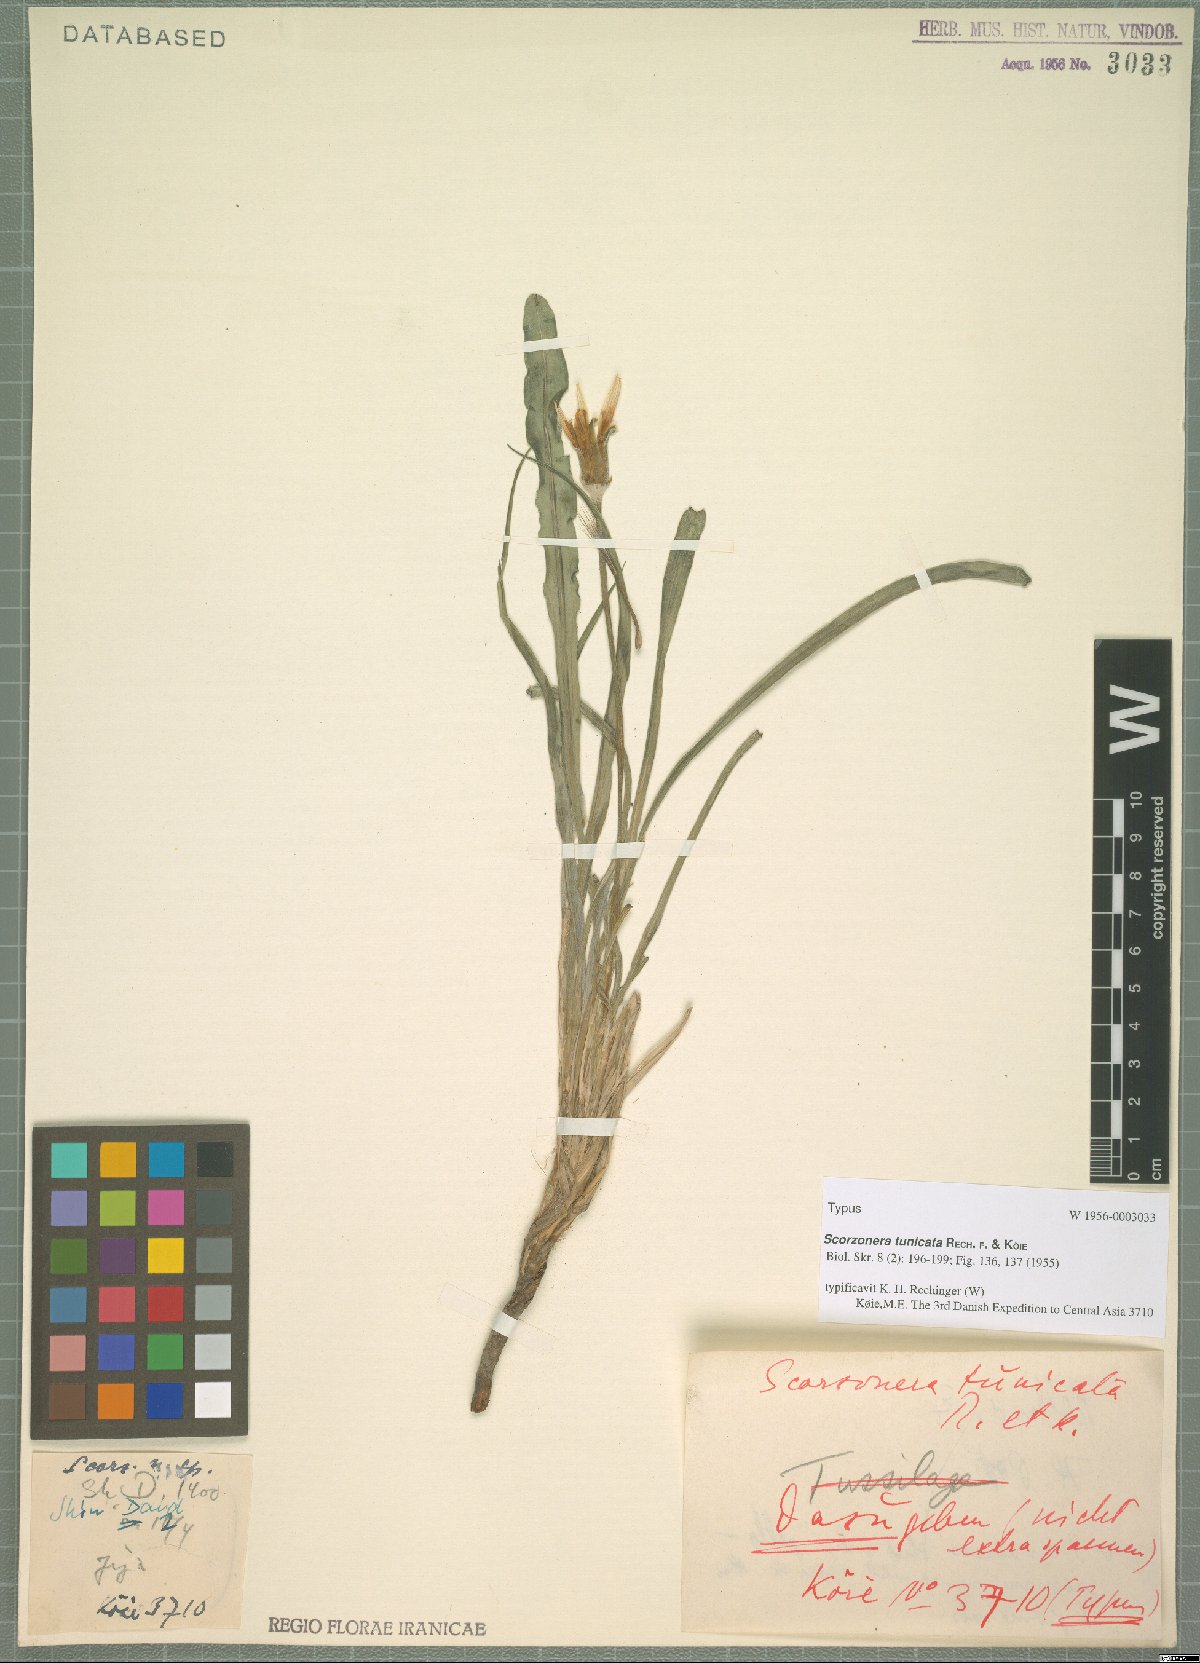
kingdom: Plantae
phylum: Tracheophyta
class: Magnoliopsida
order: Asterales
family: Asteraceae
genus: Scorzonera
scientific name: Scorzonera tunicata
